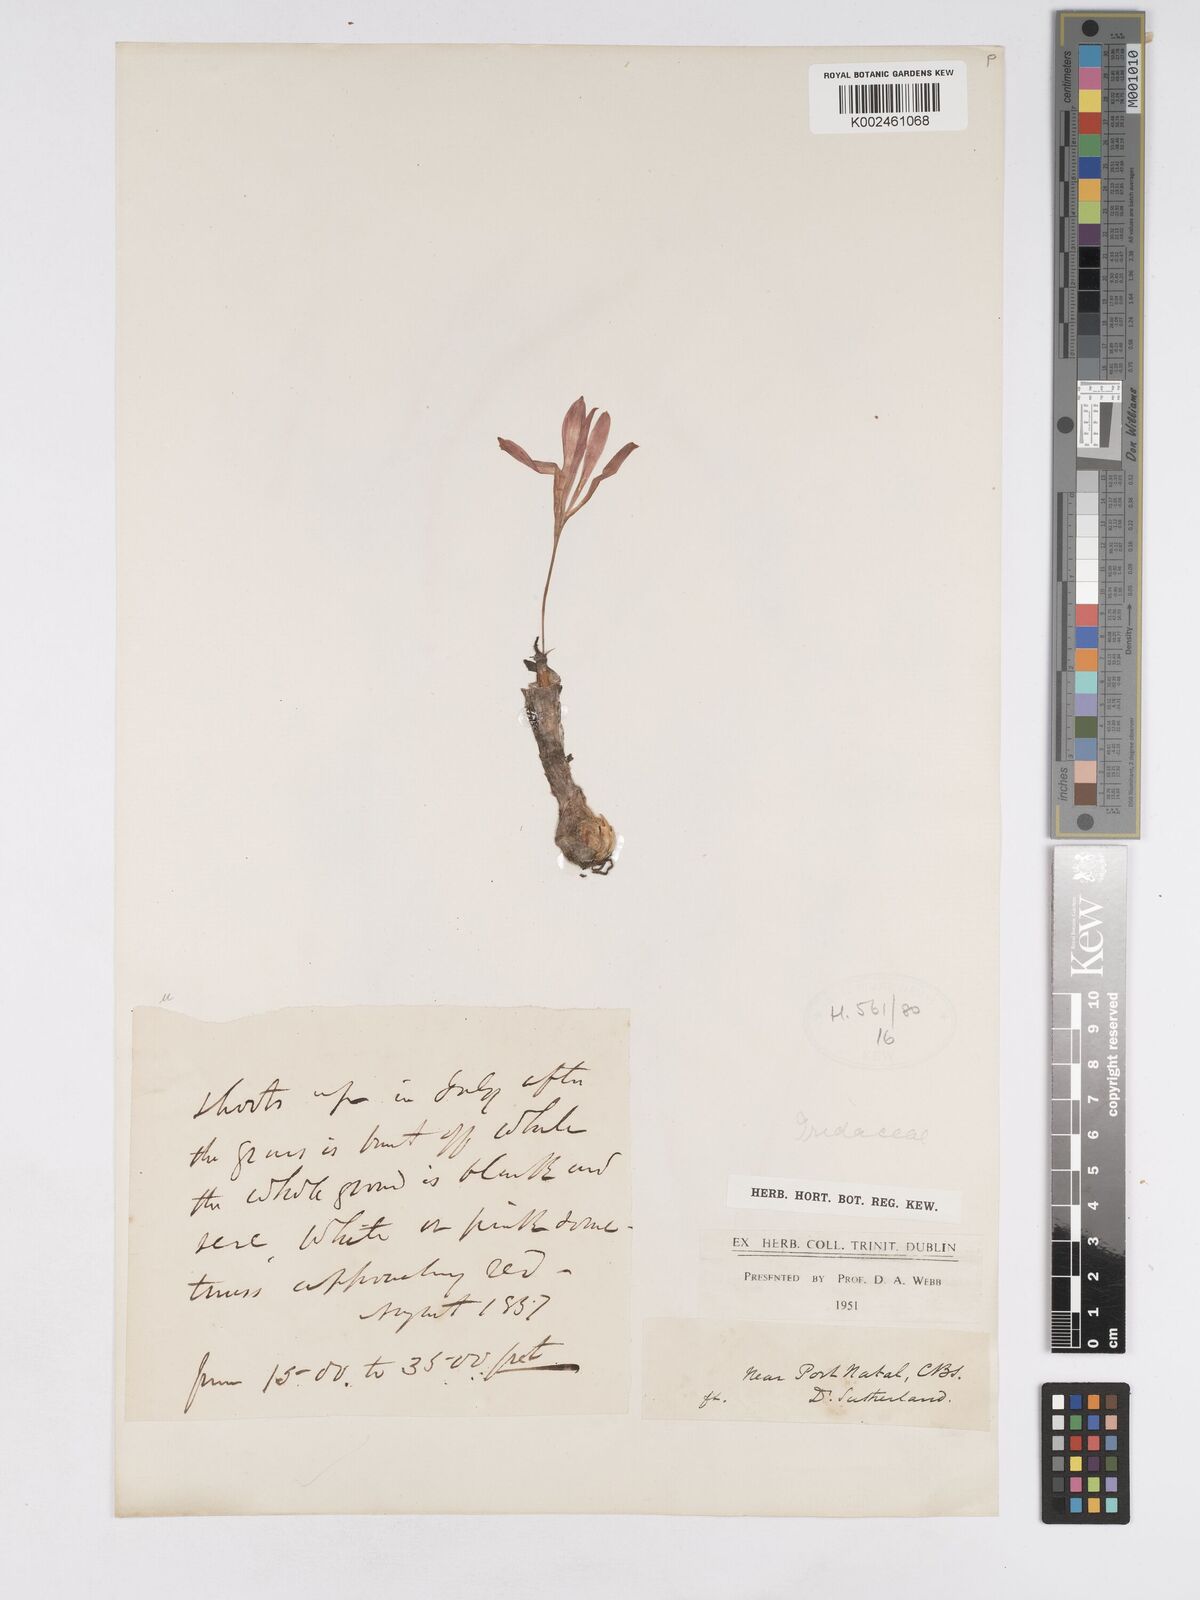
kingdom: Plantae
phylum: Tracheophyta
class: Liliopsida
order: Asparagales
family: Amaryllidaceae
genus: Apodolirion
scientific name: Apodolirion
